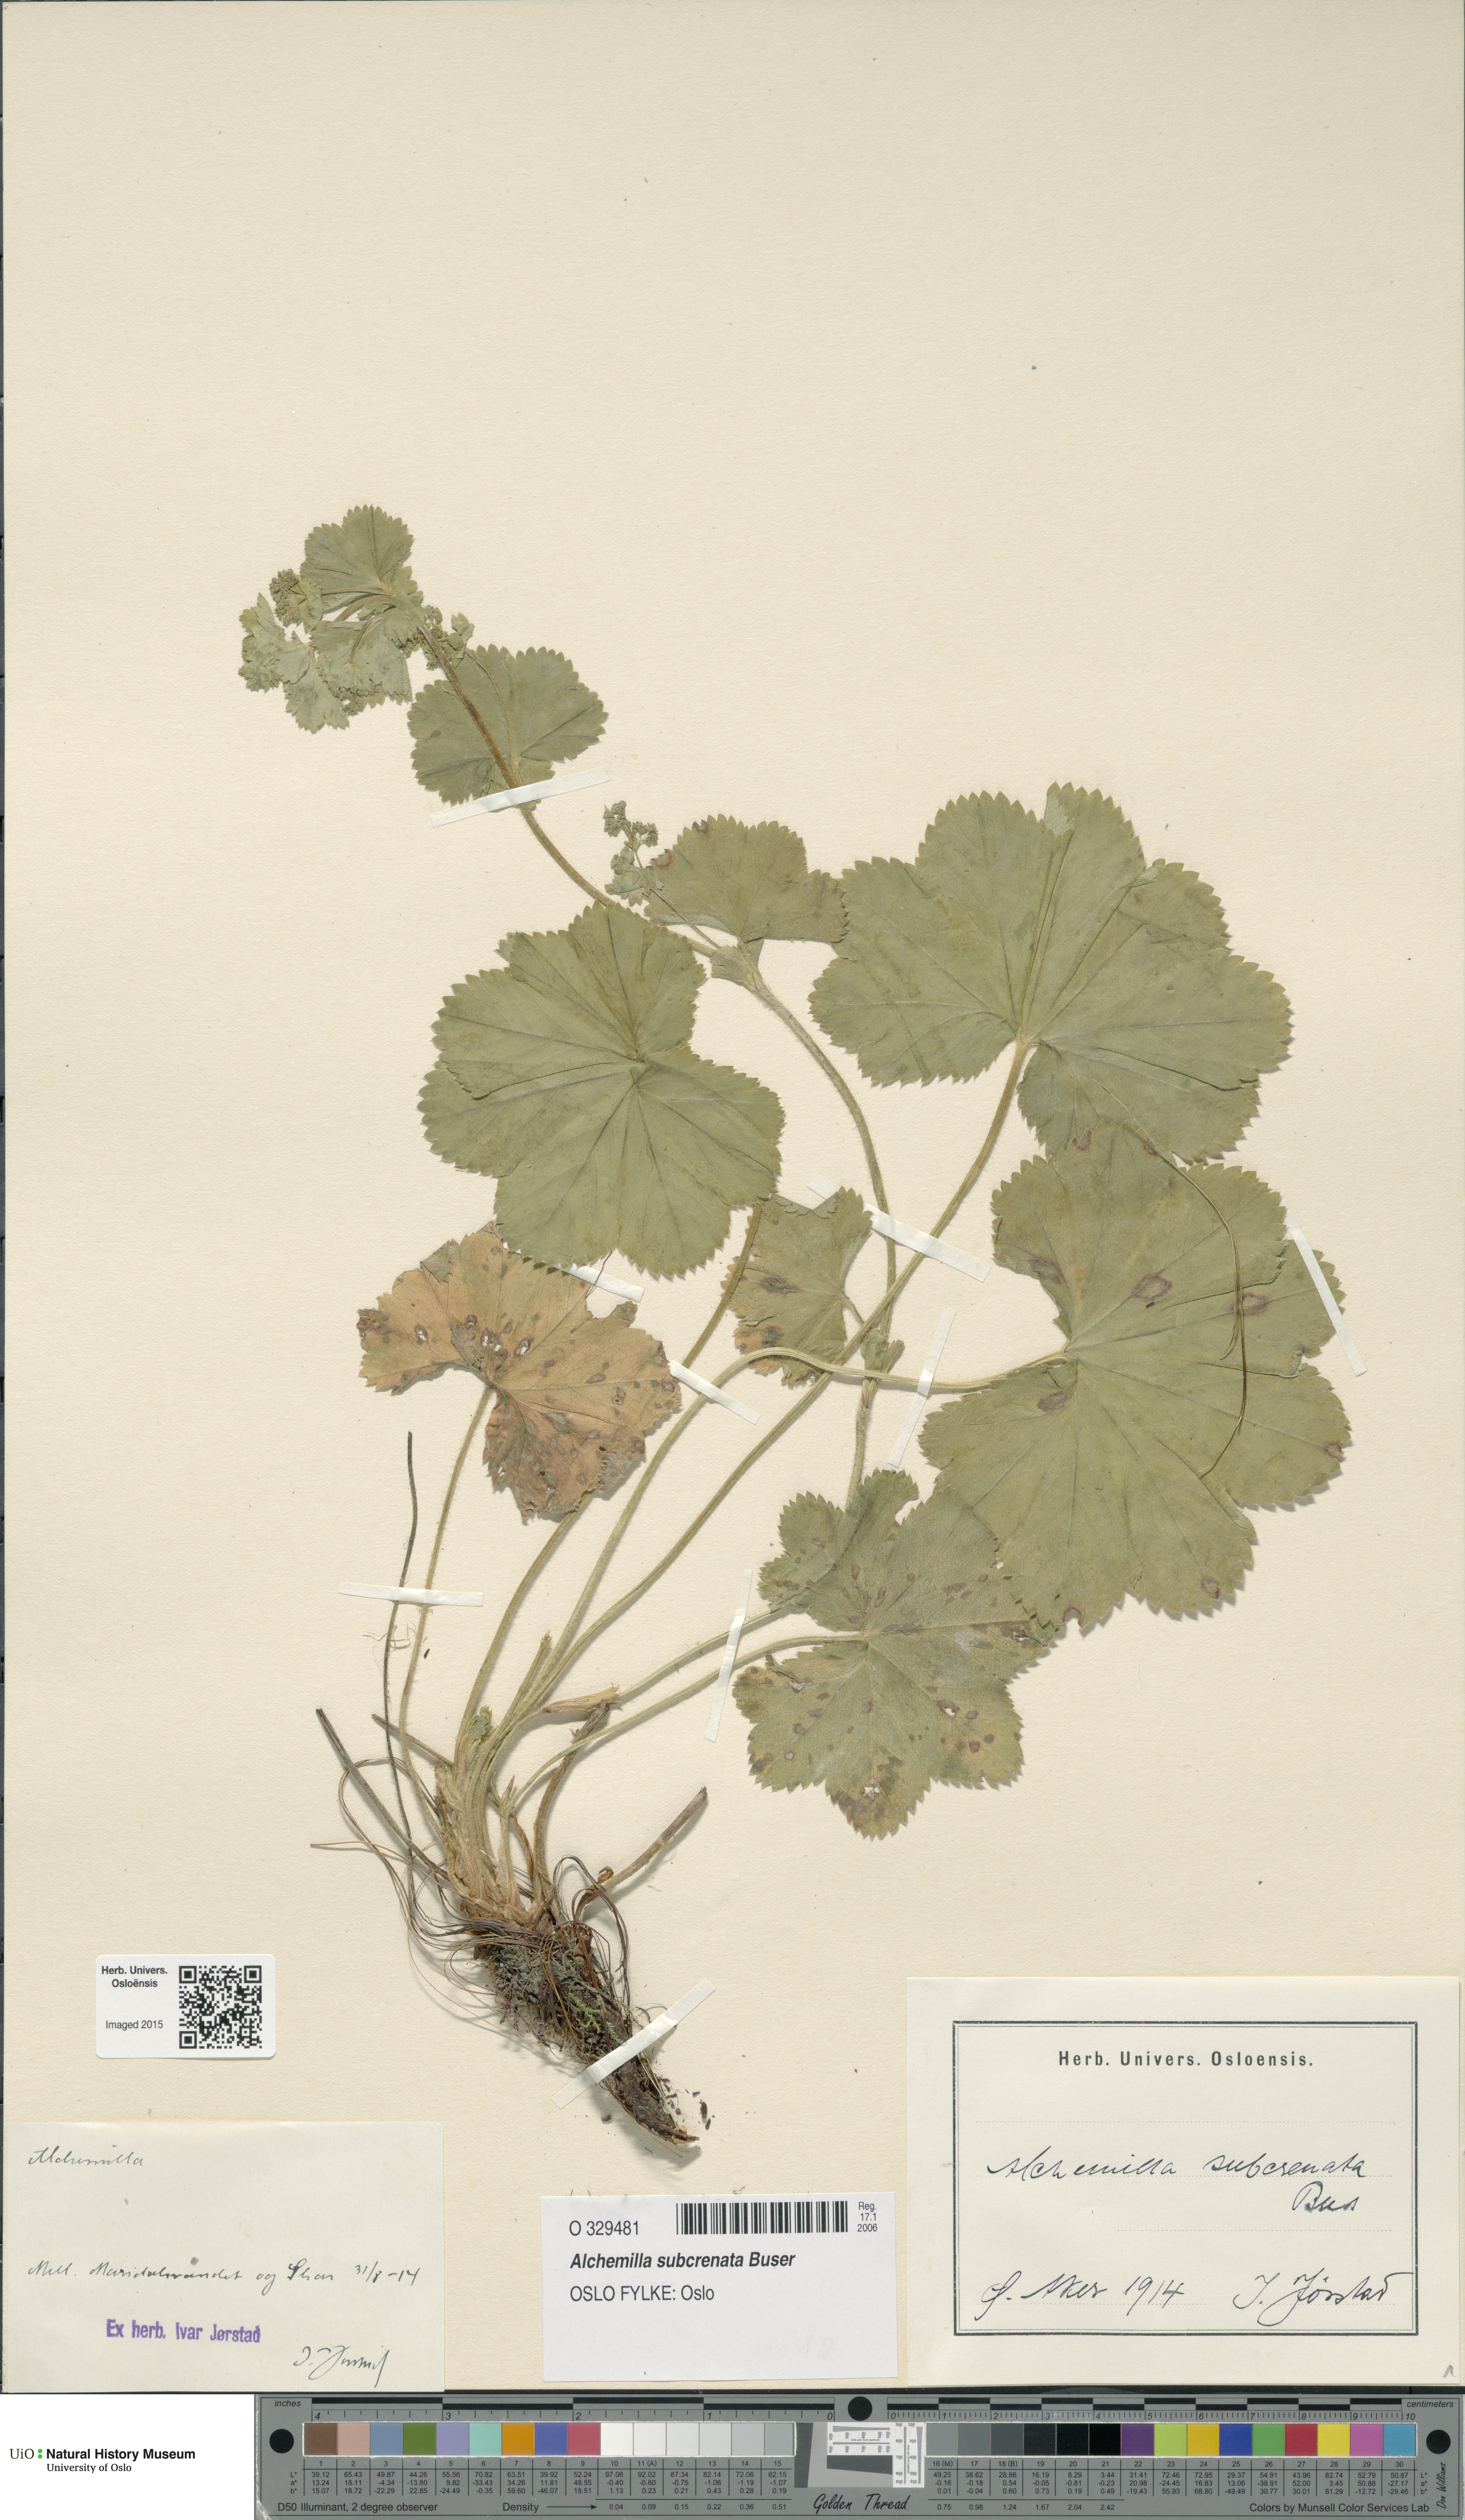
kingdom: Plantae
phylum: Tracheophyta
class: Magnoliopsida
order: Rosales
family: Rosaceae
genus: Alchemilla
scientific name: Alchemilla subcrenata
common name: Broadtooth lady's mantle
